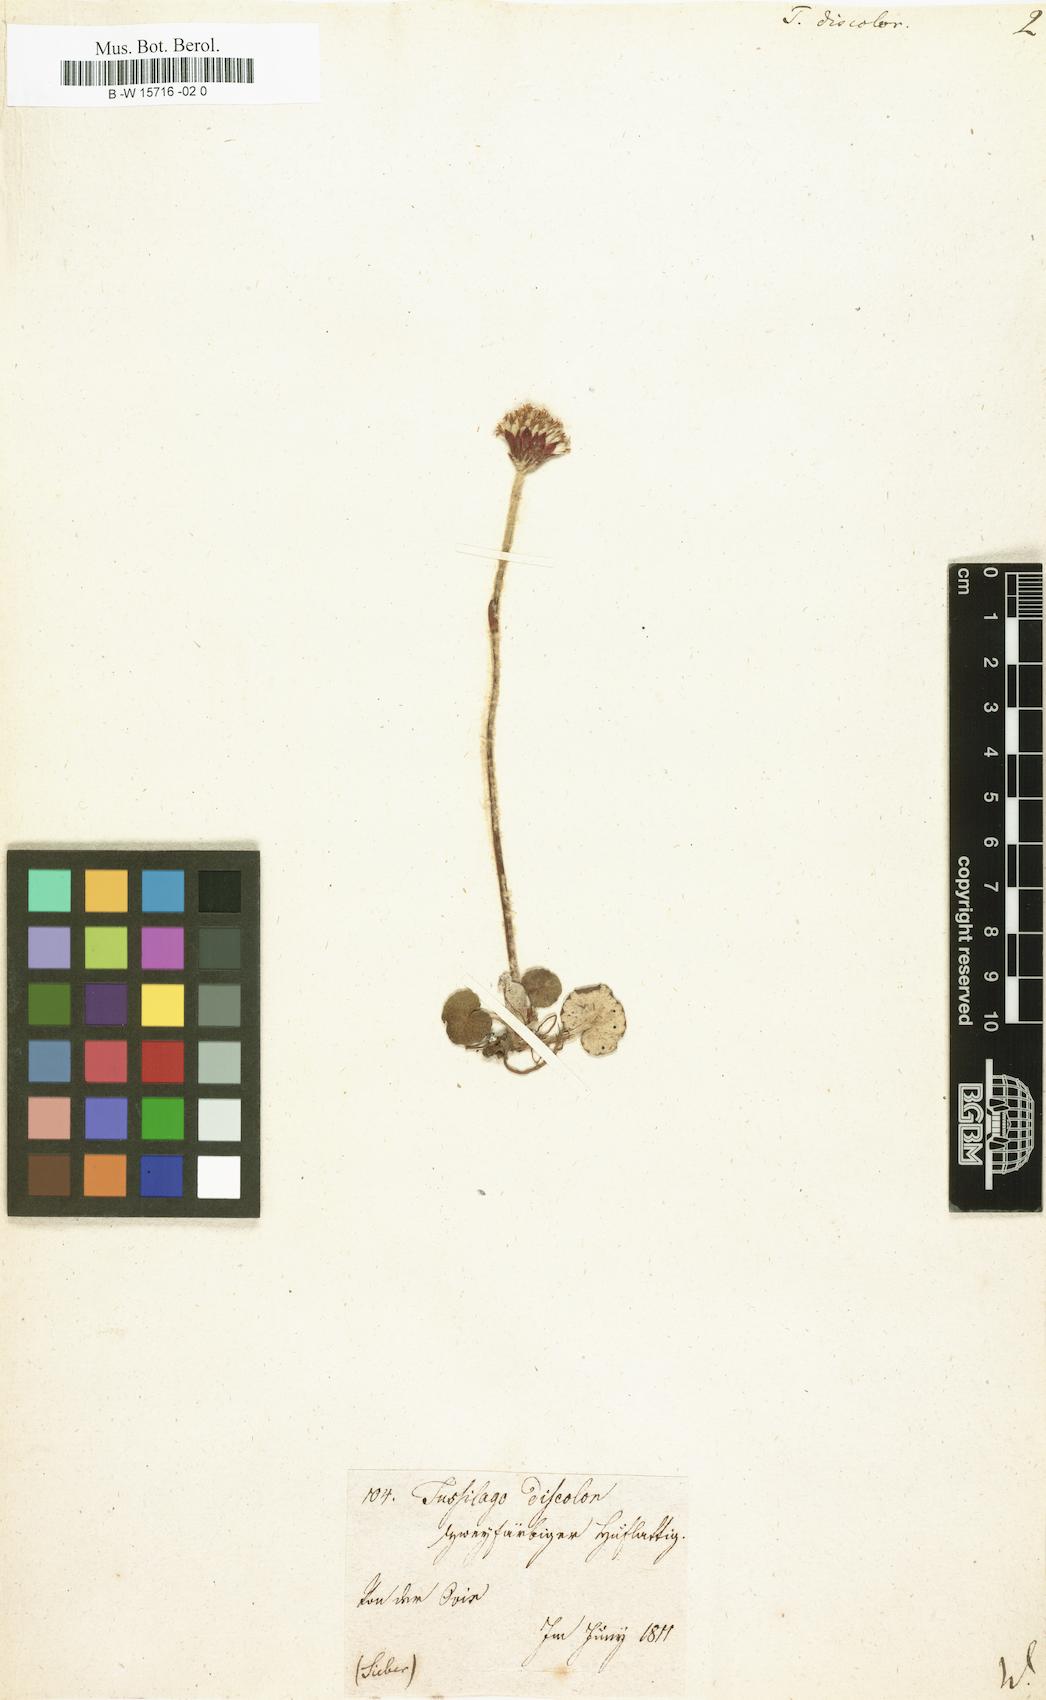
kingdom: Plantae
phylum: Tracheophyta
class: Magnoliopsida
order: Asterales
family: Asteraceae
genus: Homogyne
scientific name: Homogyne discolor
